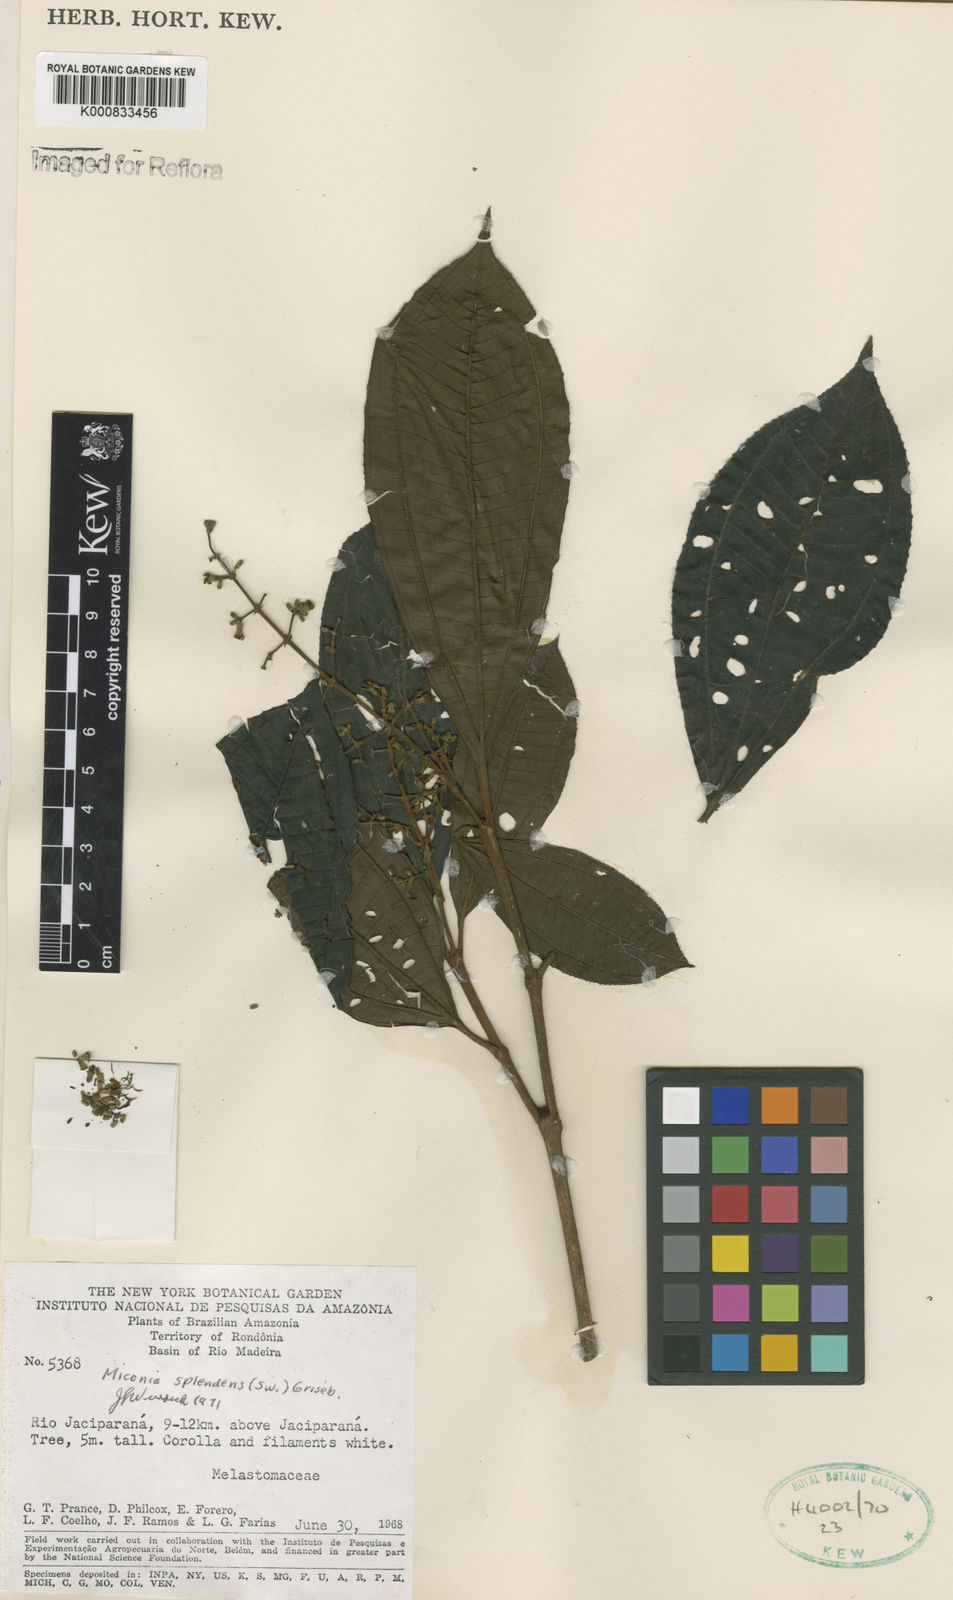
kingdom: Plantae
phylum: Tracheophyta
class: Magnoliopsida
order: Myrtales
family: Melastomataceae
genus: Miconia
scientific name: Miconia splendens
